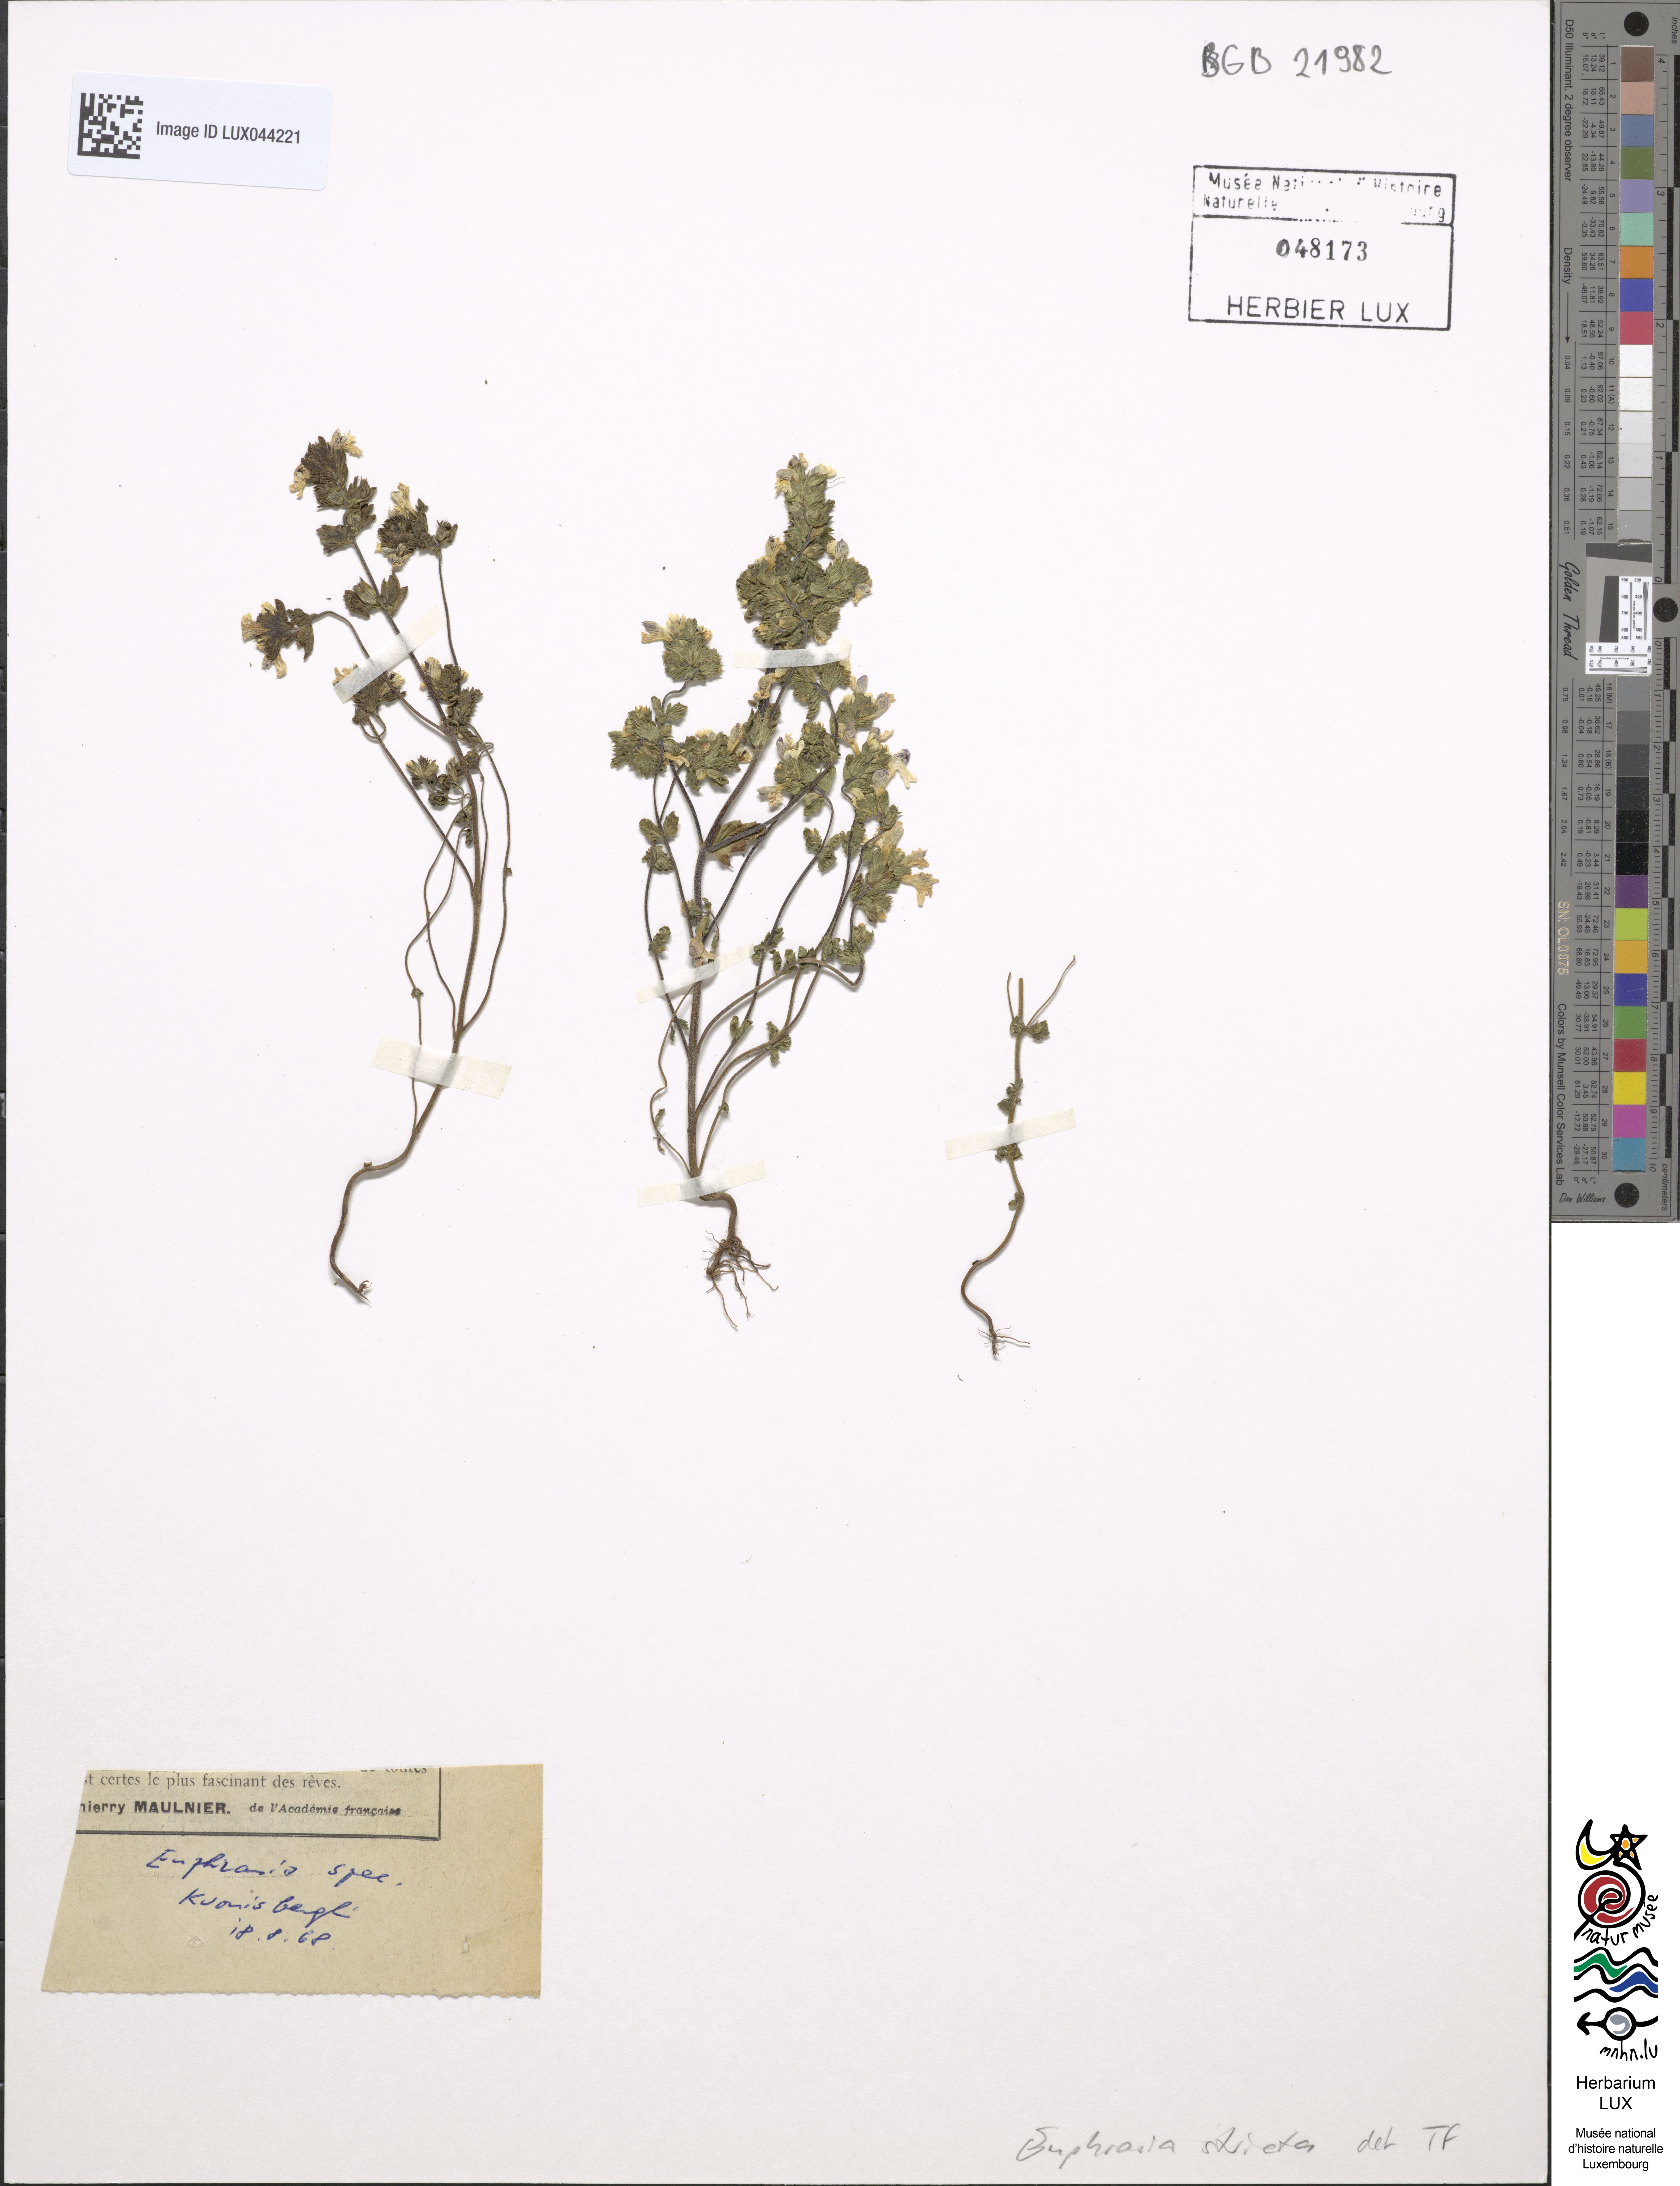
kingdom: Plantae
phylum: Tracheophyta
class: Magnoliopsida
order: Lamiales
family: Orobanchaceae
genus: Euphrasia
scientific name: Euphrasia stricta
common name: Drug eyebright
